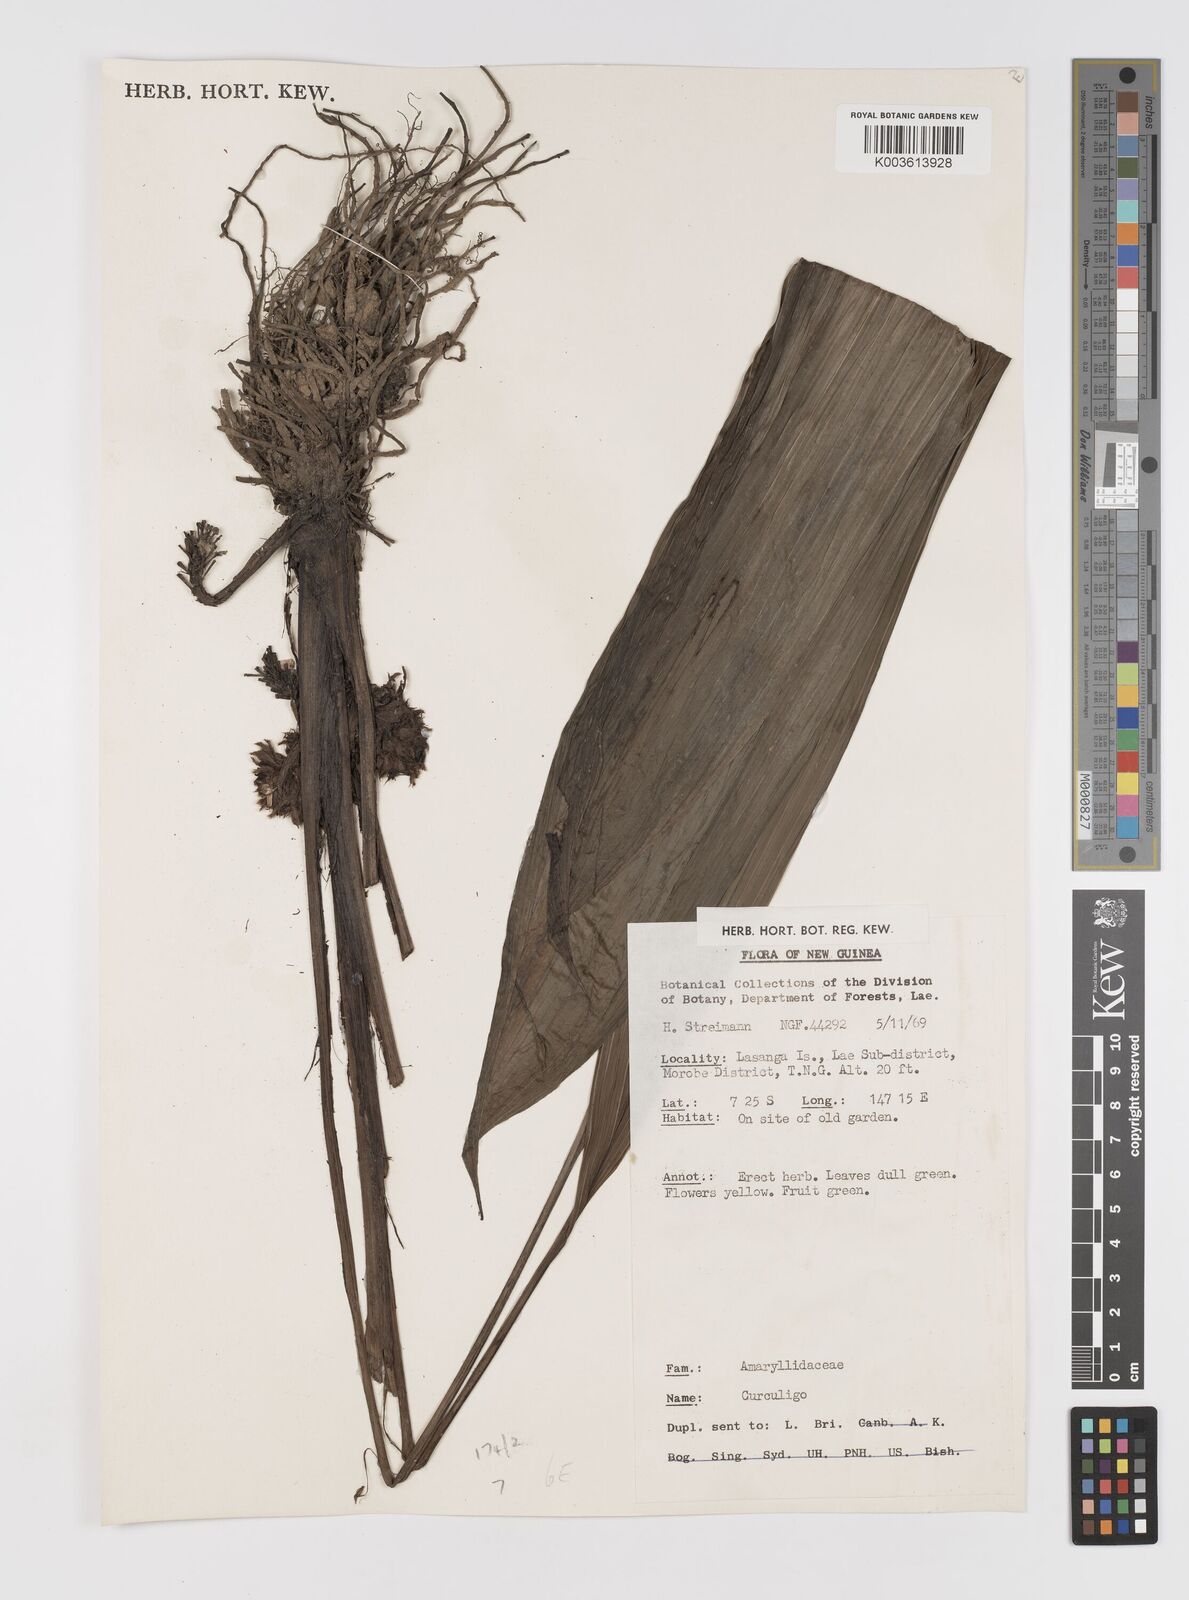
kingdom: Plantae
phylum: Tracheophyta
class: Liliopsida
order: Asparagales
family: Hypoxidaceae
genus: Curculigo
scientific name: Curculigo
